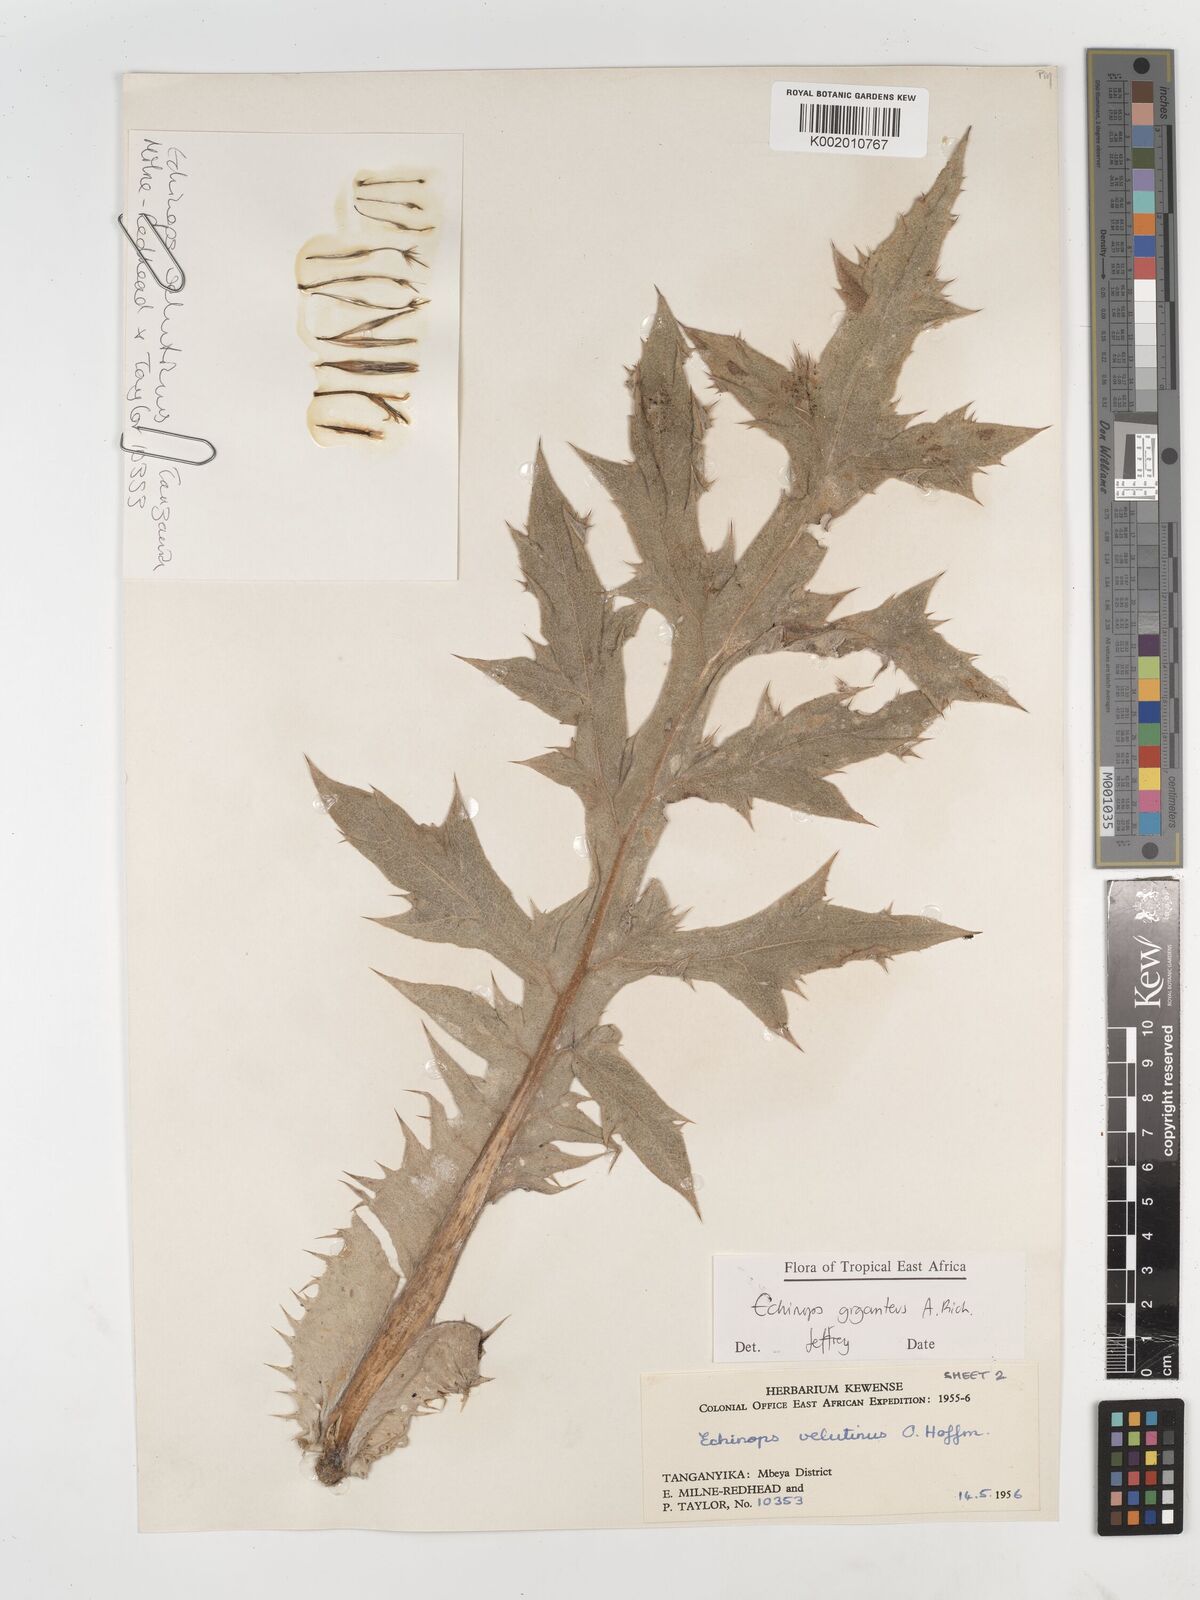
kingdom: Plantae
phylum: Tracheophyta
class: Magnoliopsida
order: Asterales
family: Asteraceae
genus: Echinops
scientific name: Echinops giganteus
